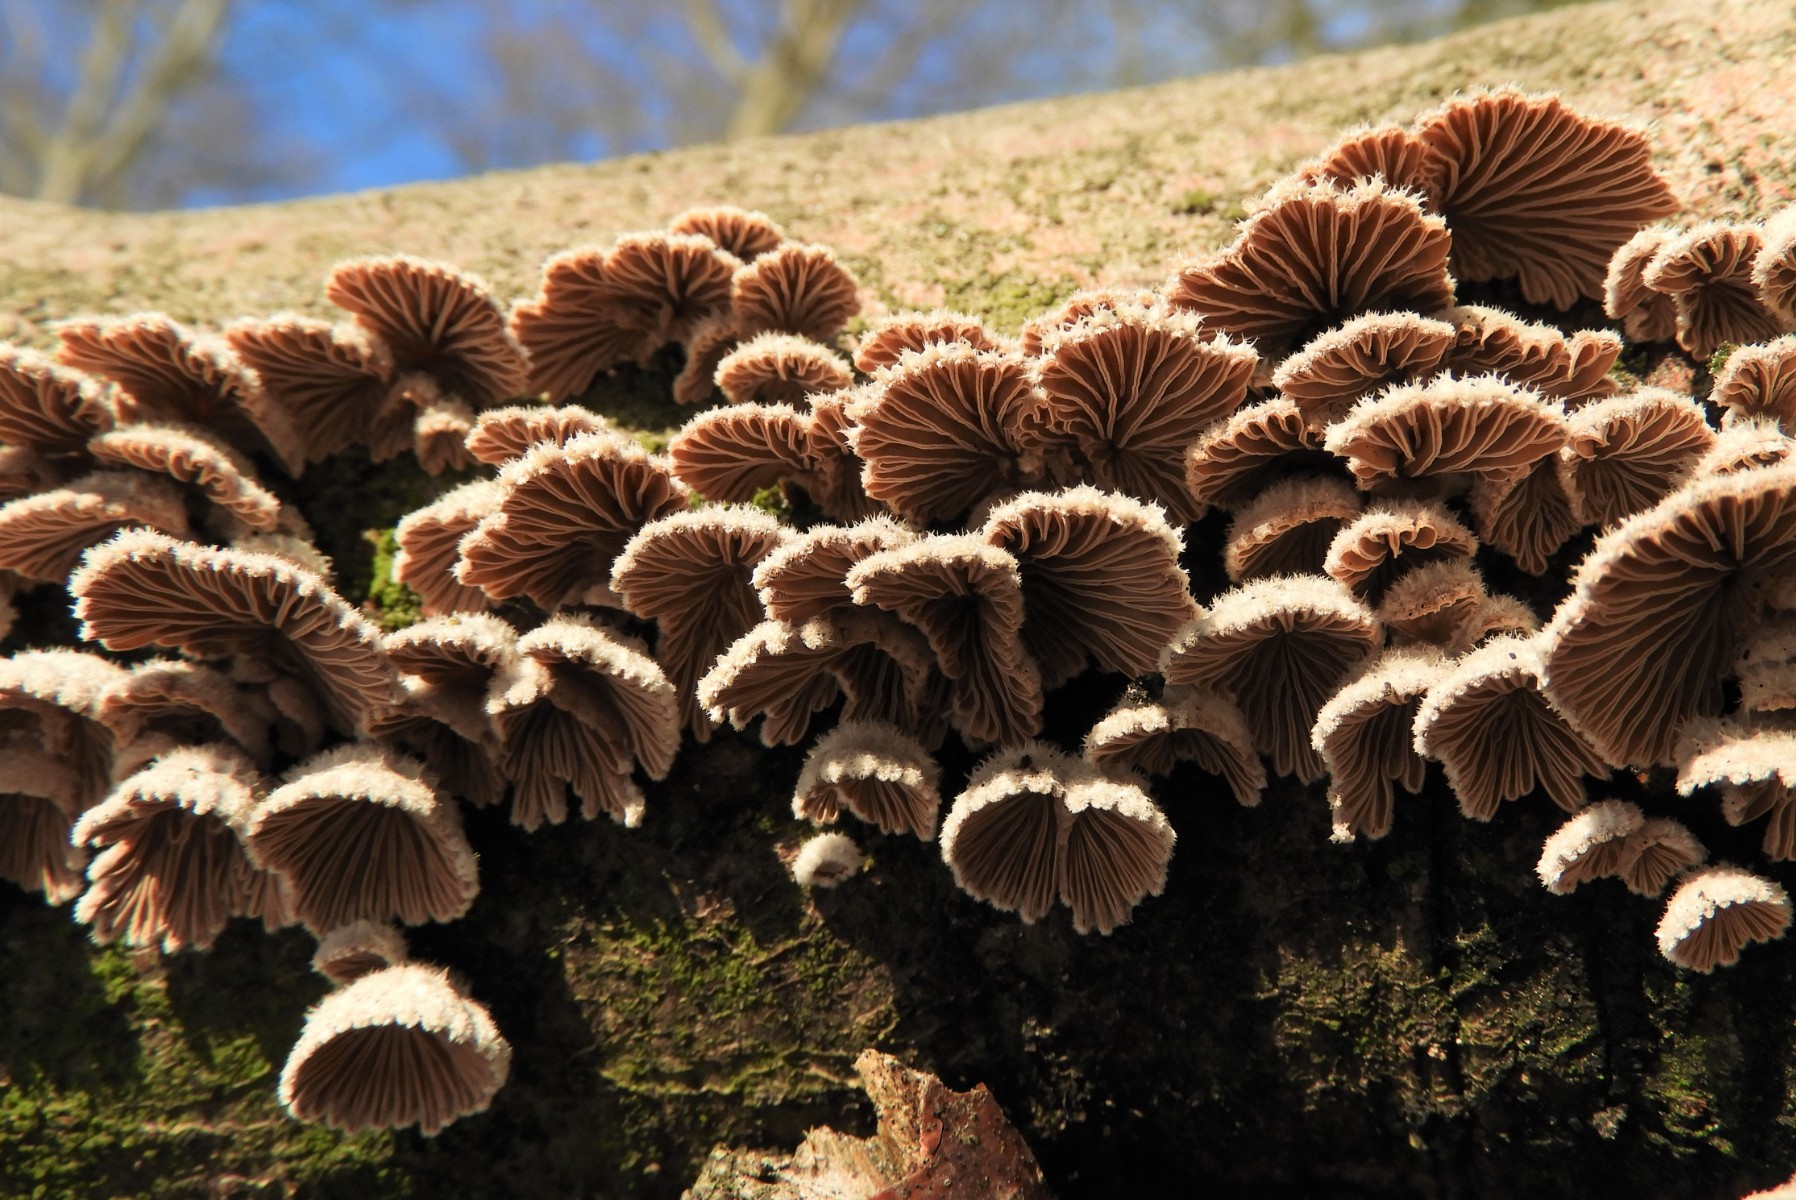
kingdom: Fungi
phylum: Basidiomycota
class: Agaricomycetes
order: Agaricales
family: Schizophyllaceae
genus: Schizophyllum
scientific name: Schizophyllum commune
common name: kløvblad
